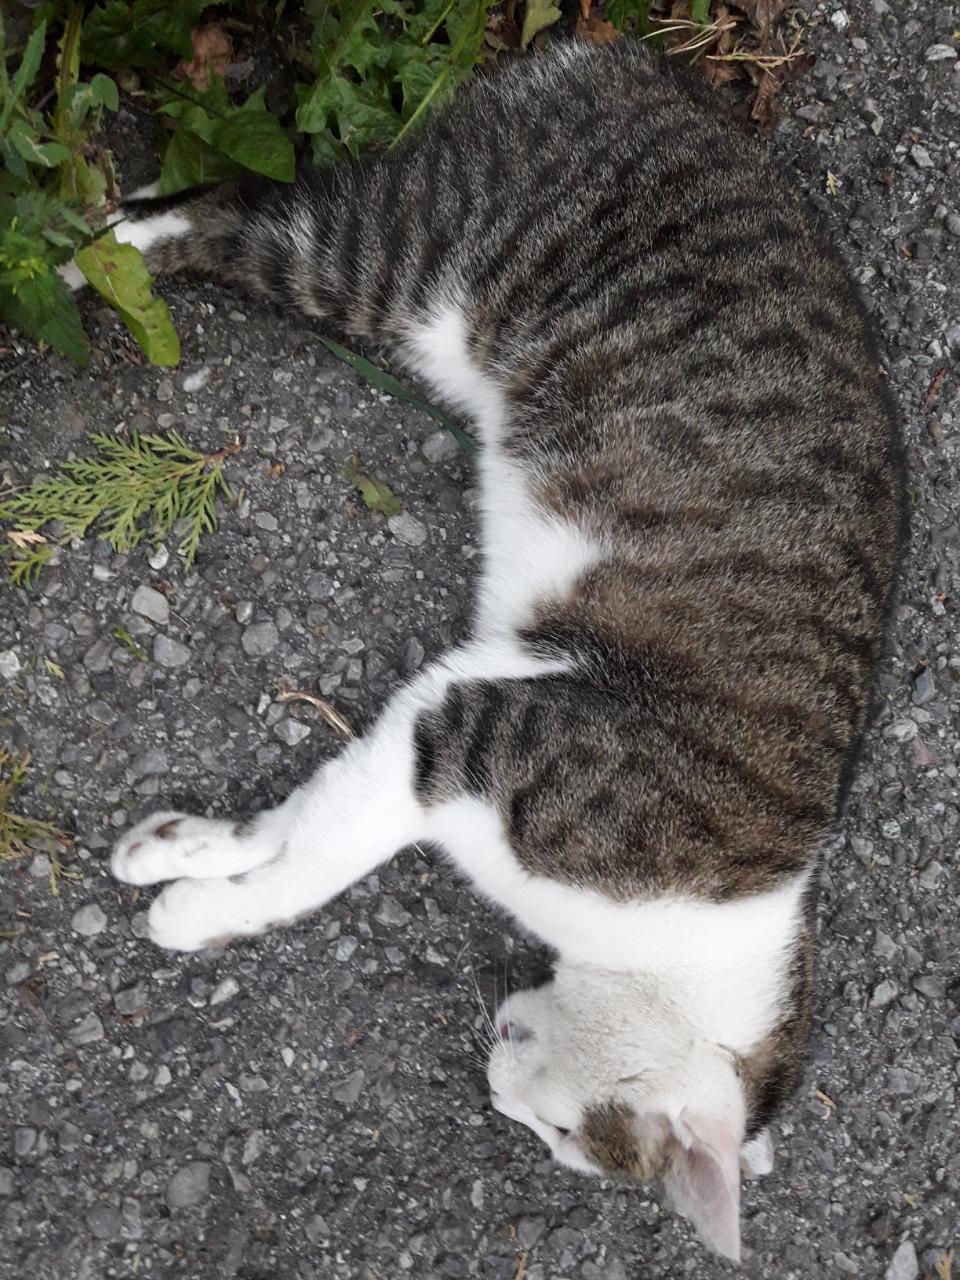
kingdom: Animalia
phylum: Chordata
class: Mammalia
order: Carnivora
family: Felidae
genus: Felis
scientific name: Felis catus
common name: Domestic cat
